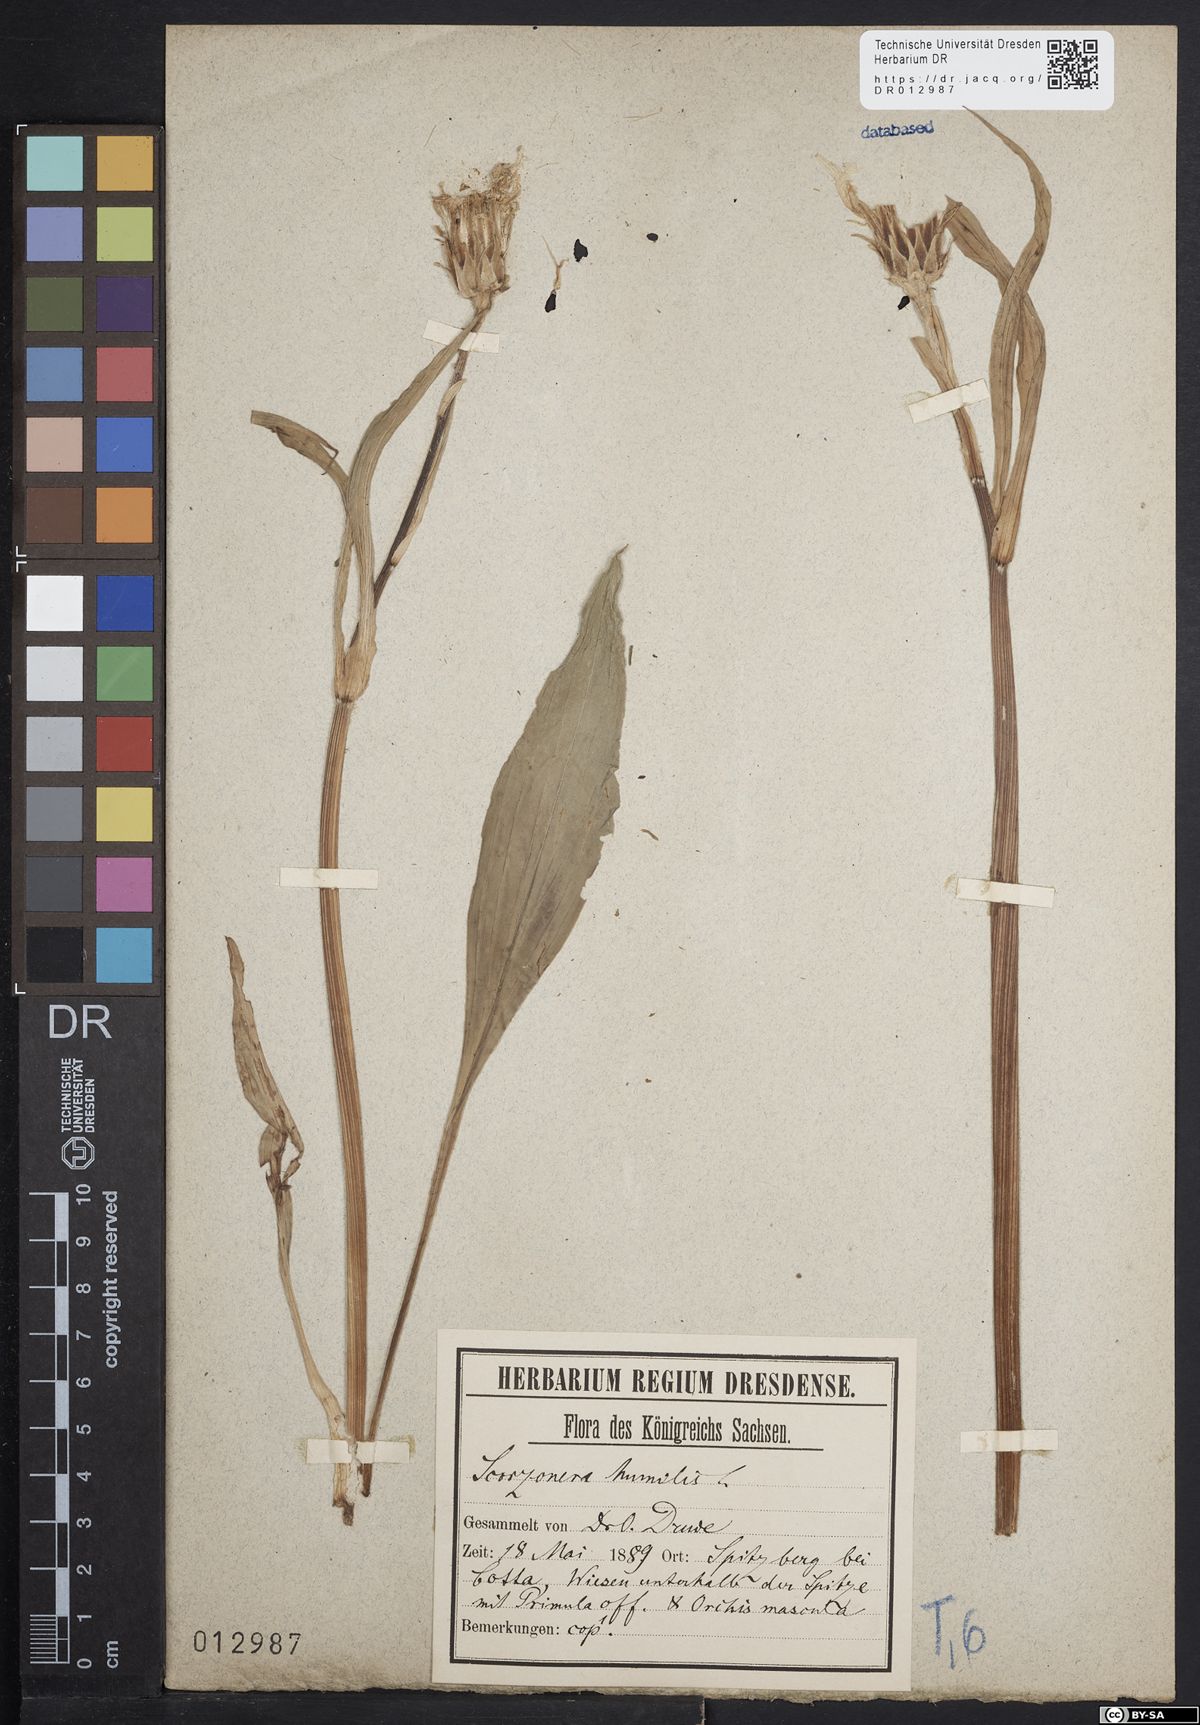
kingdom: Plantae
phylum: Tracheophyta
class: Magnoliopsida
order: Asterales
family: Asteraceae
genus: Scorzonera
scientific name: Scorzonera humilis
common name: Viper's-grass
